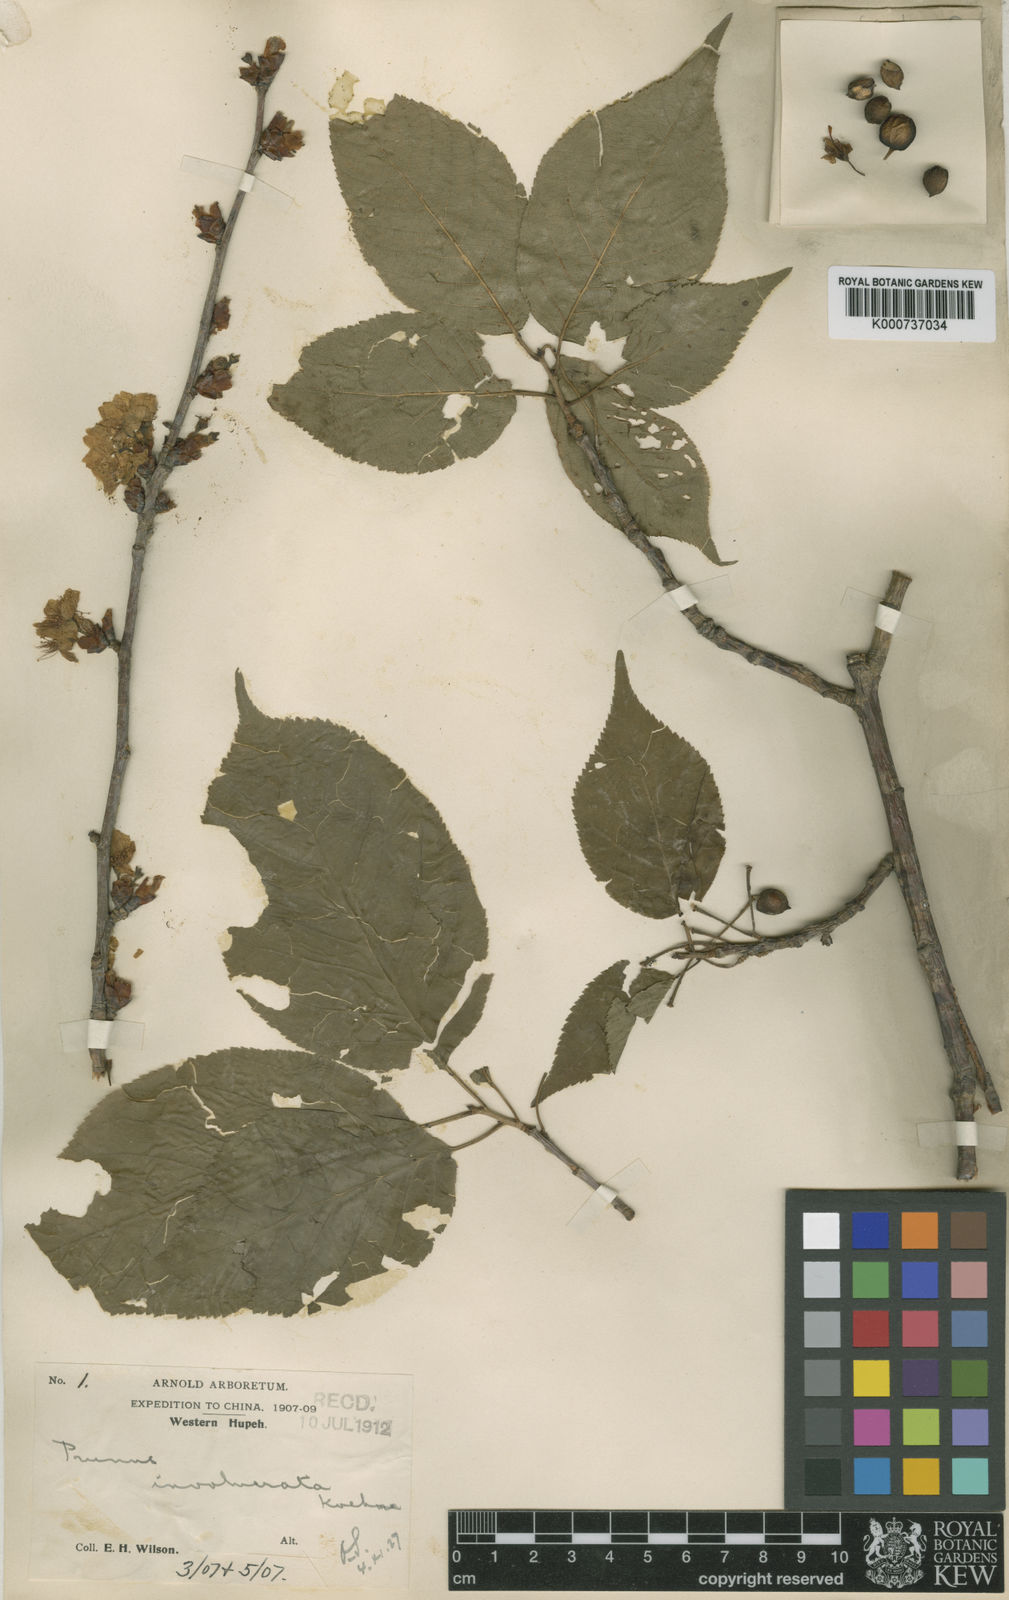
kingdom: Plantae
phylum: Tracheophyta
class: Magnoliopsida
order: Rosales
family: Rosaceae
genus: Prunus
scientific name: Prunus pseudocerasus
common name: Ying tao cherry
